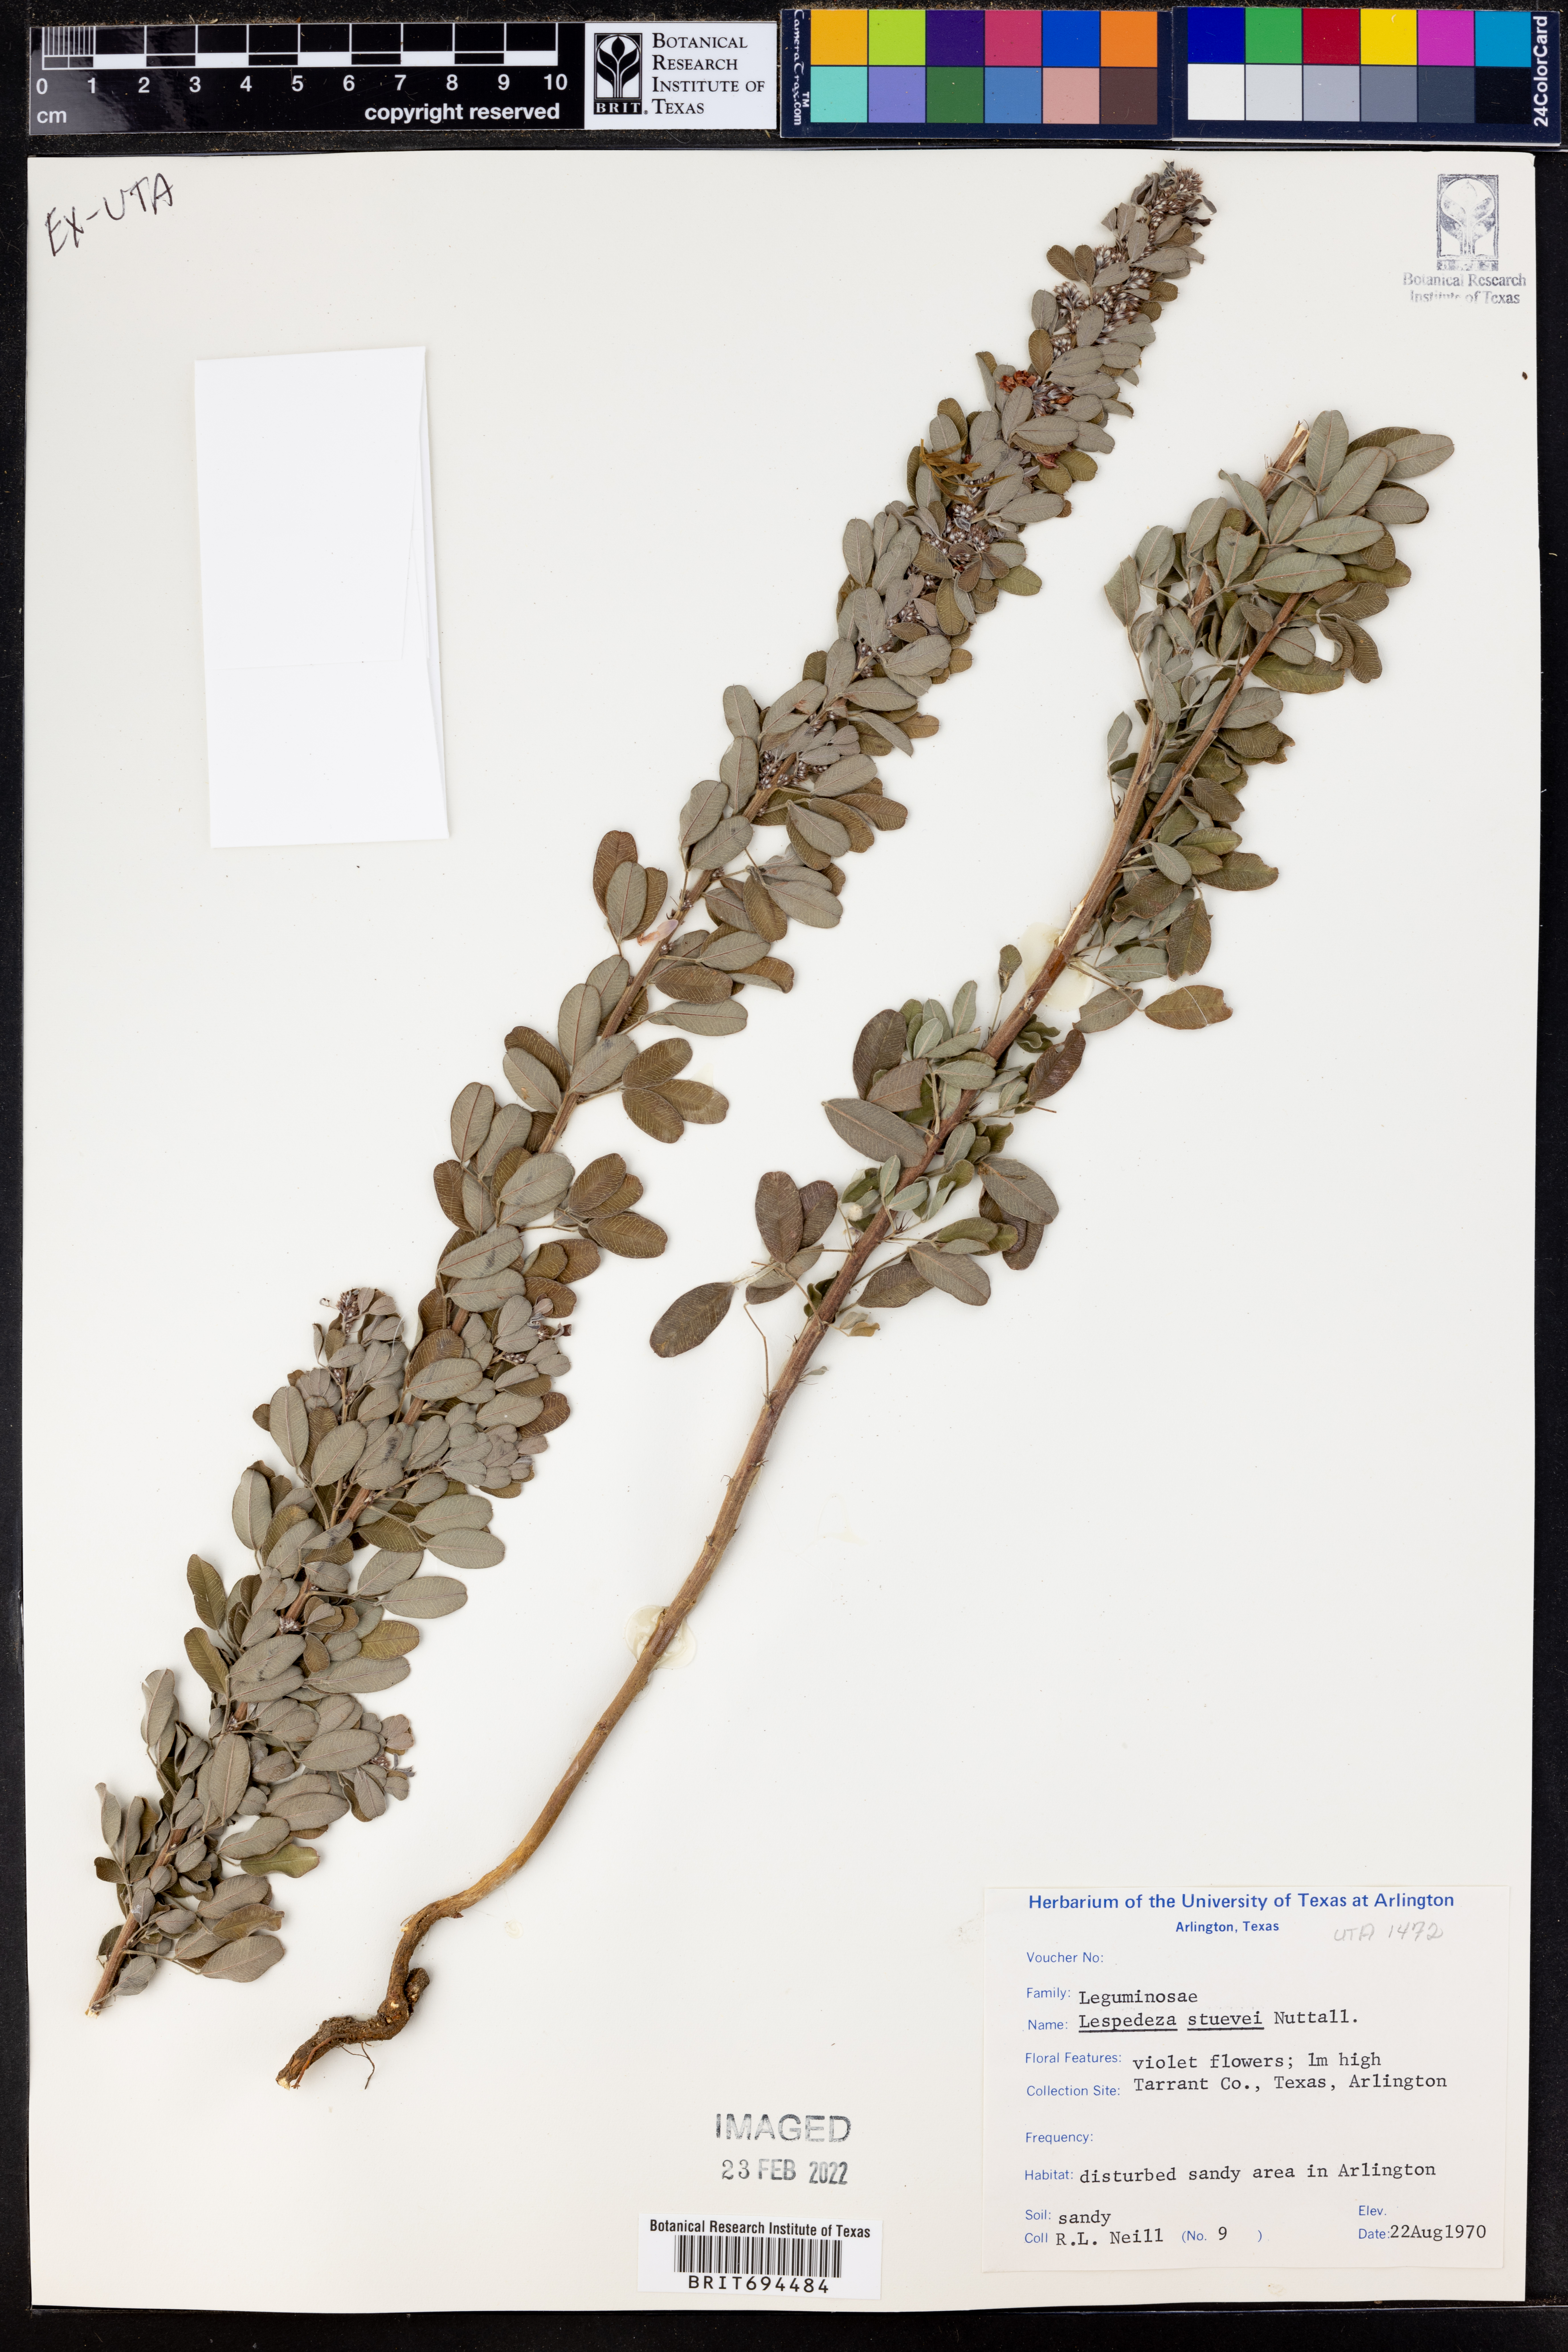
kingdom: Plantae
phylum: Tracheophyta
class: Magnoliopsida
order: Fabales
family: Fabaceae
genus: Lespedeza
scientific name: Lespedeza stuevei
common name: Tall bush-clover
